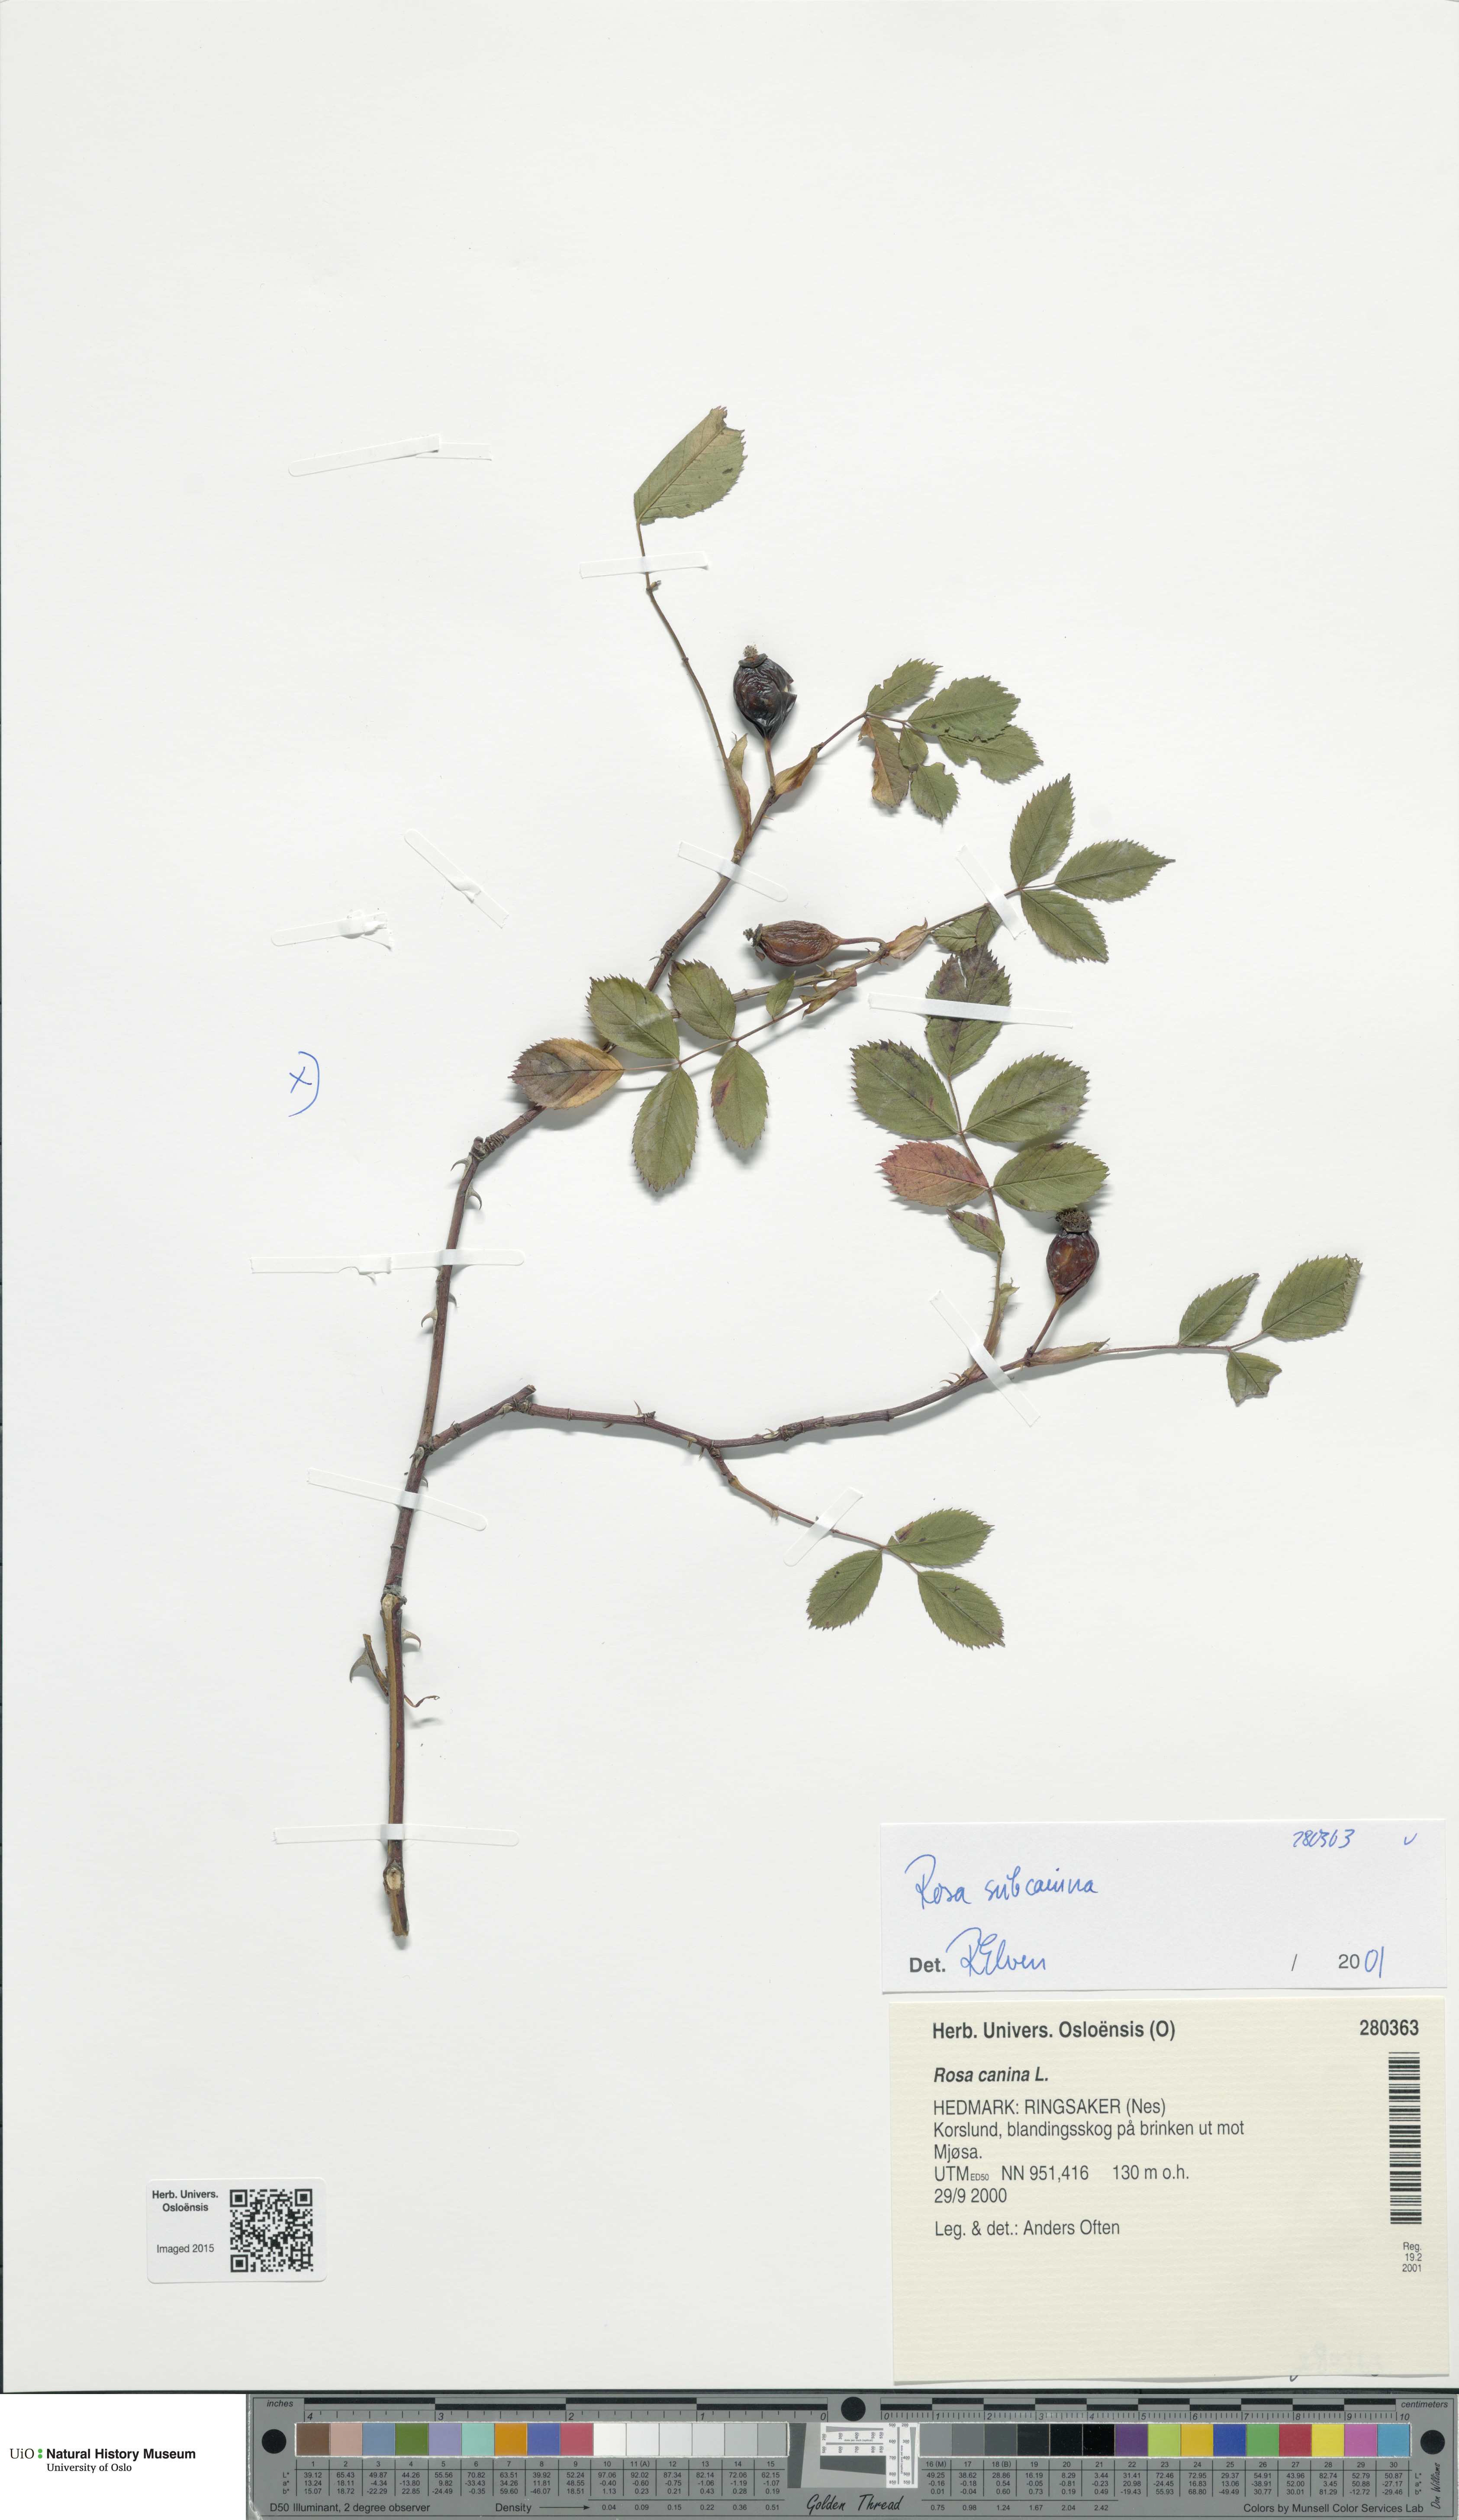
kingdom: Plantae
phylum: Tracheophyta
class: Magnoliopsida
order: Rosales
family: Rosaceae
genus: Rosa
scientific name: Rosa subcanina
